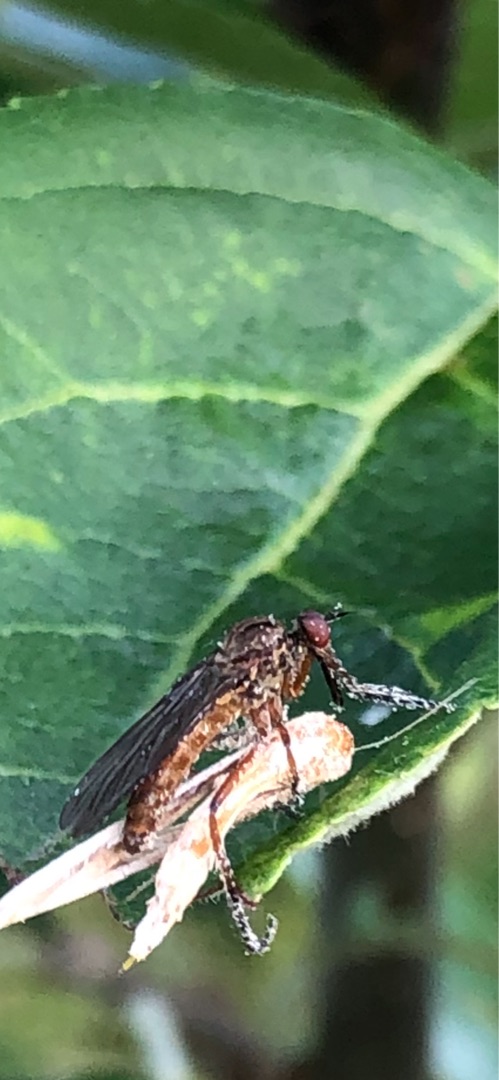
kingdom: Animalia
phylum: Arthropoda
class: Insecta
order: Diptera
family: Empididae
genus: Empis
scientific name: Empis livida
